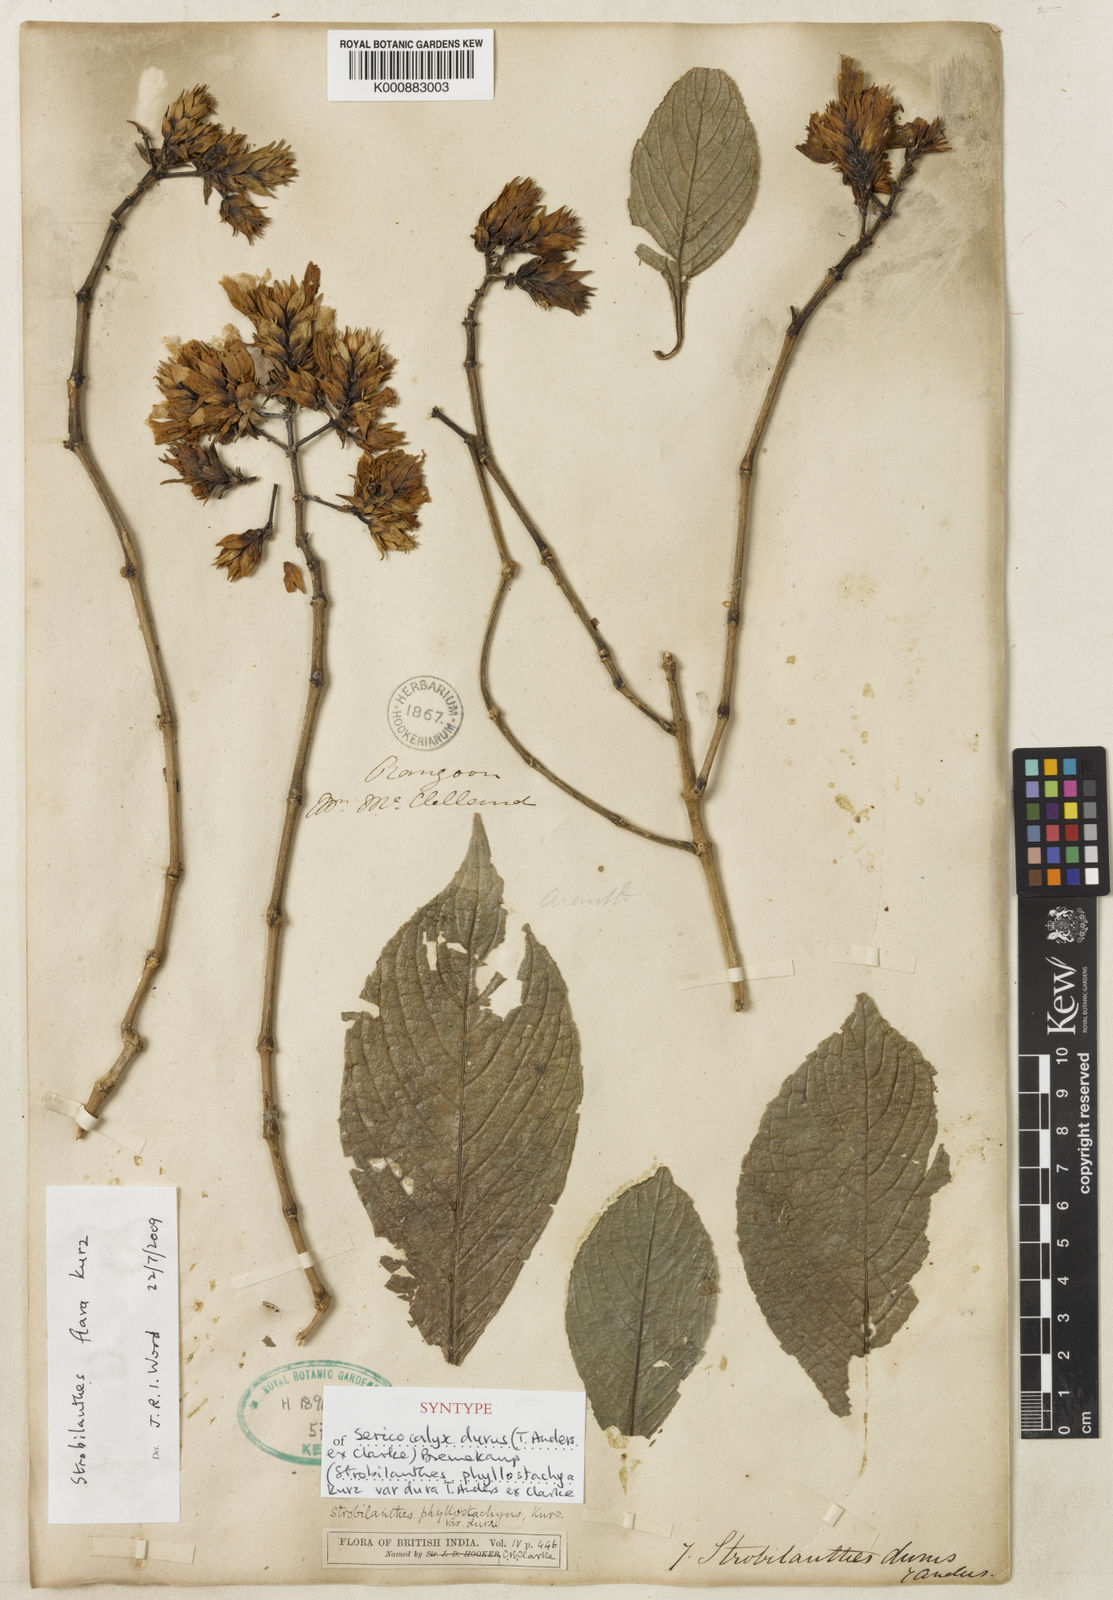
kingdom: Plantae
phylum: Tracheophyta
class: Magnoliopsida
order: Lamiales
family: Acanthaceae
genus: Strobilanthes
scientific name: Strobilanthes phyllostachya
